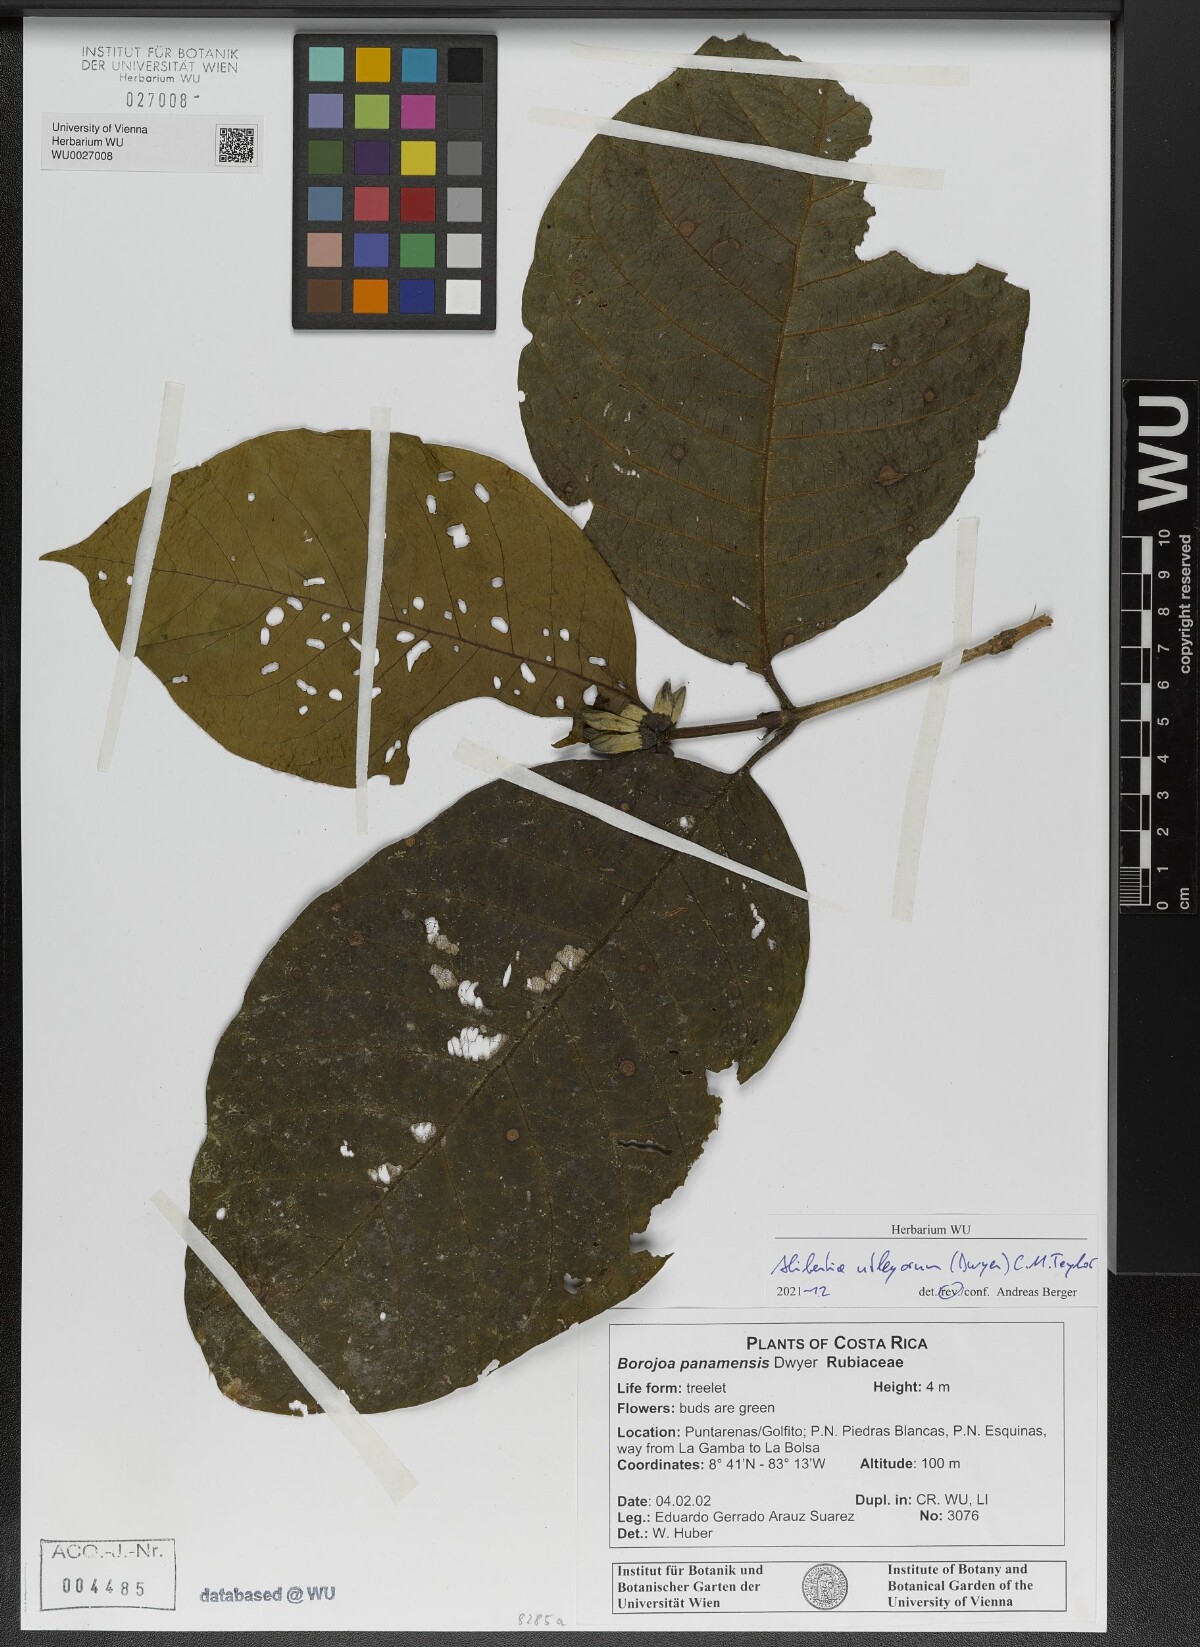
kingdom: Plantae
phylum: Tracheophyta
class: Magnoliopsida
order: Gentianales
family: Rubiaceae
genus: Alibertia
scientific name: Alibertia utleyorum
